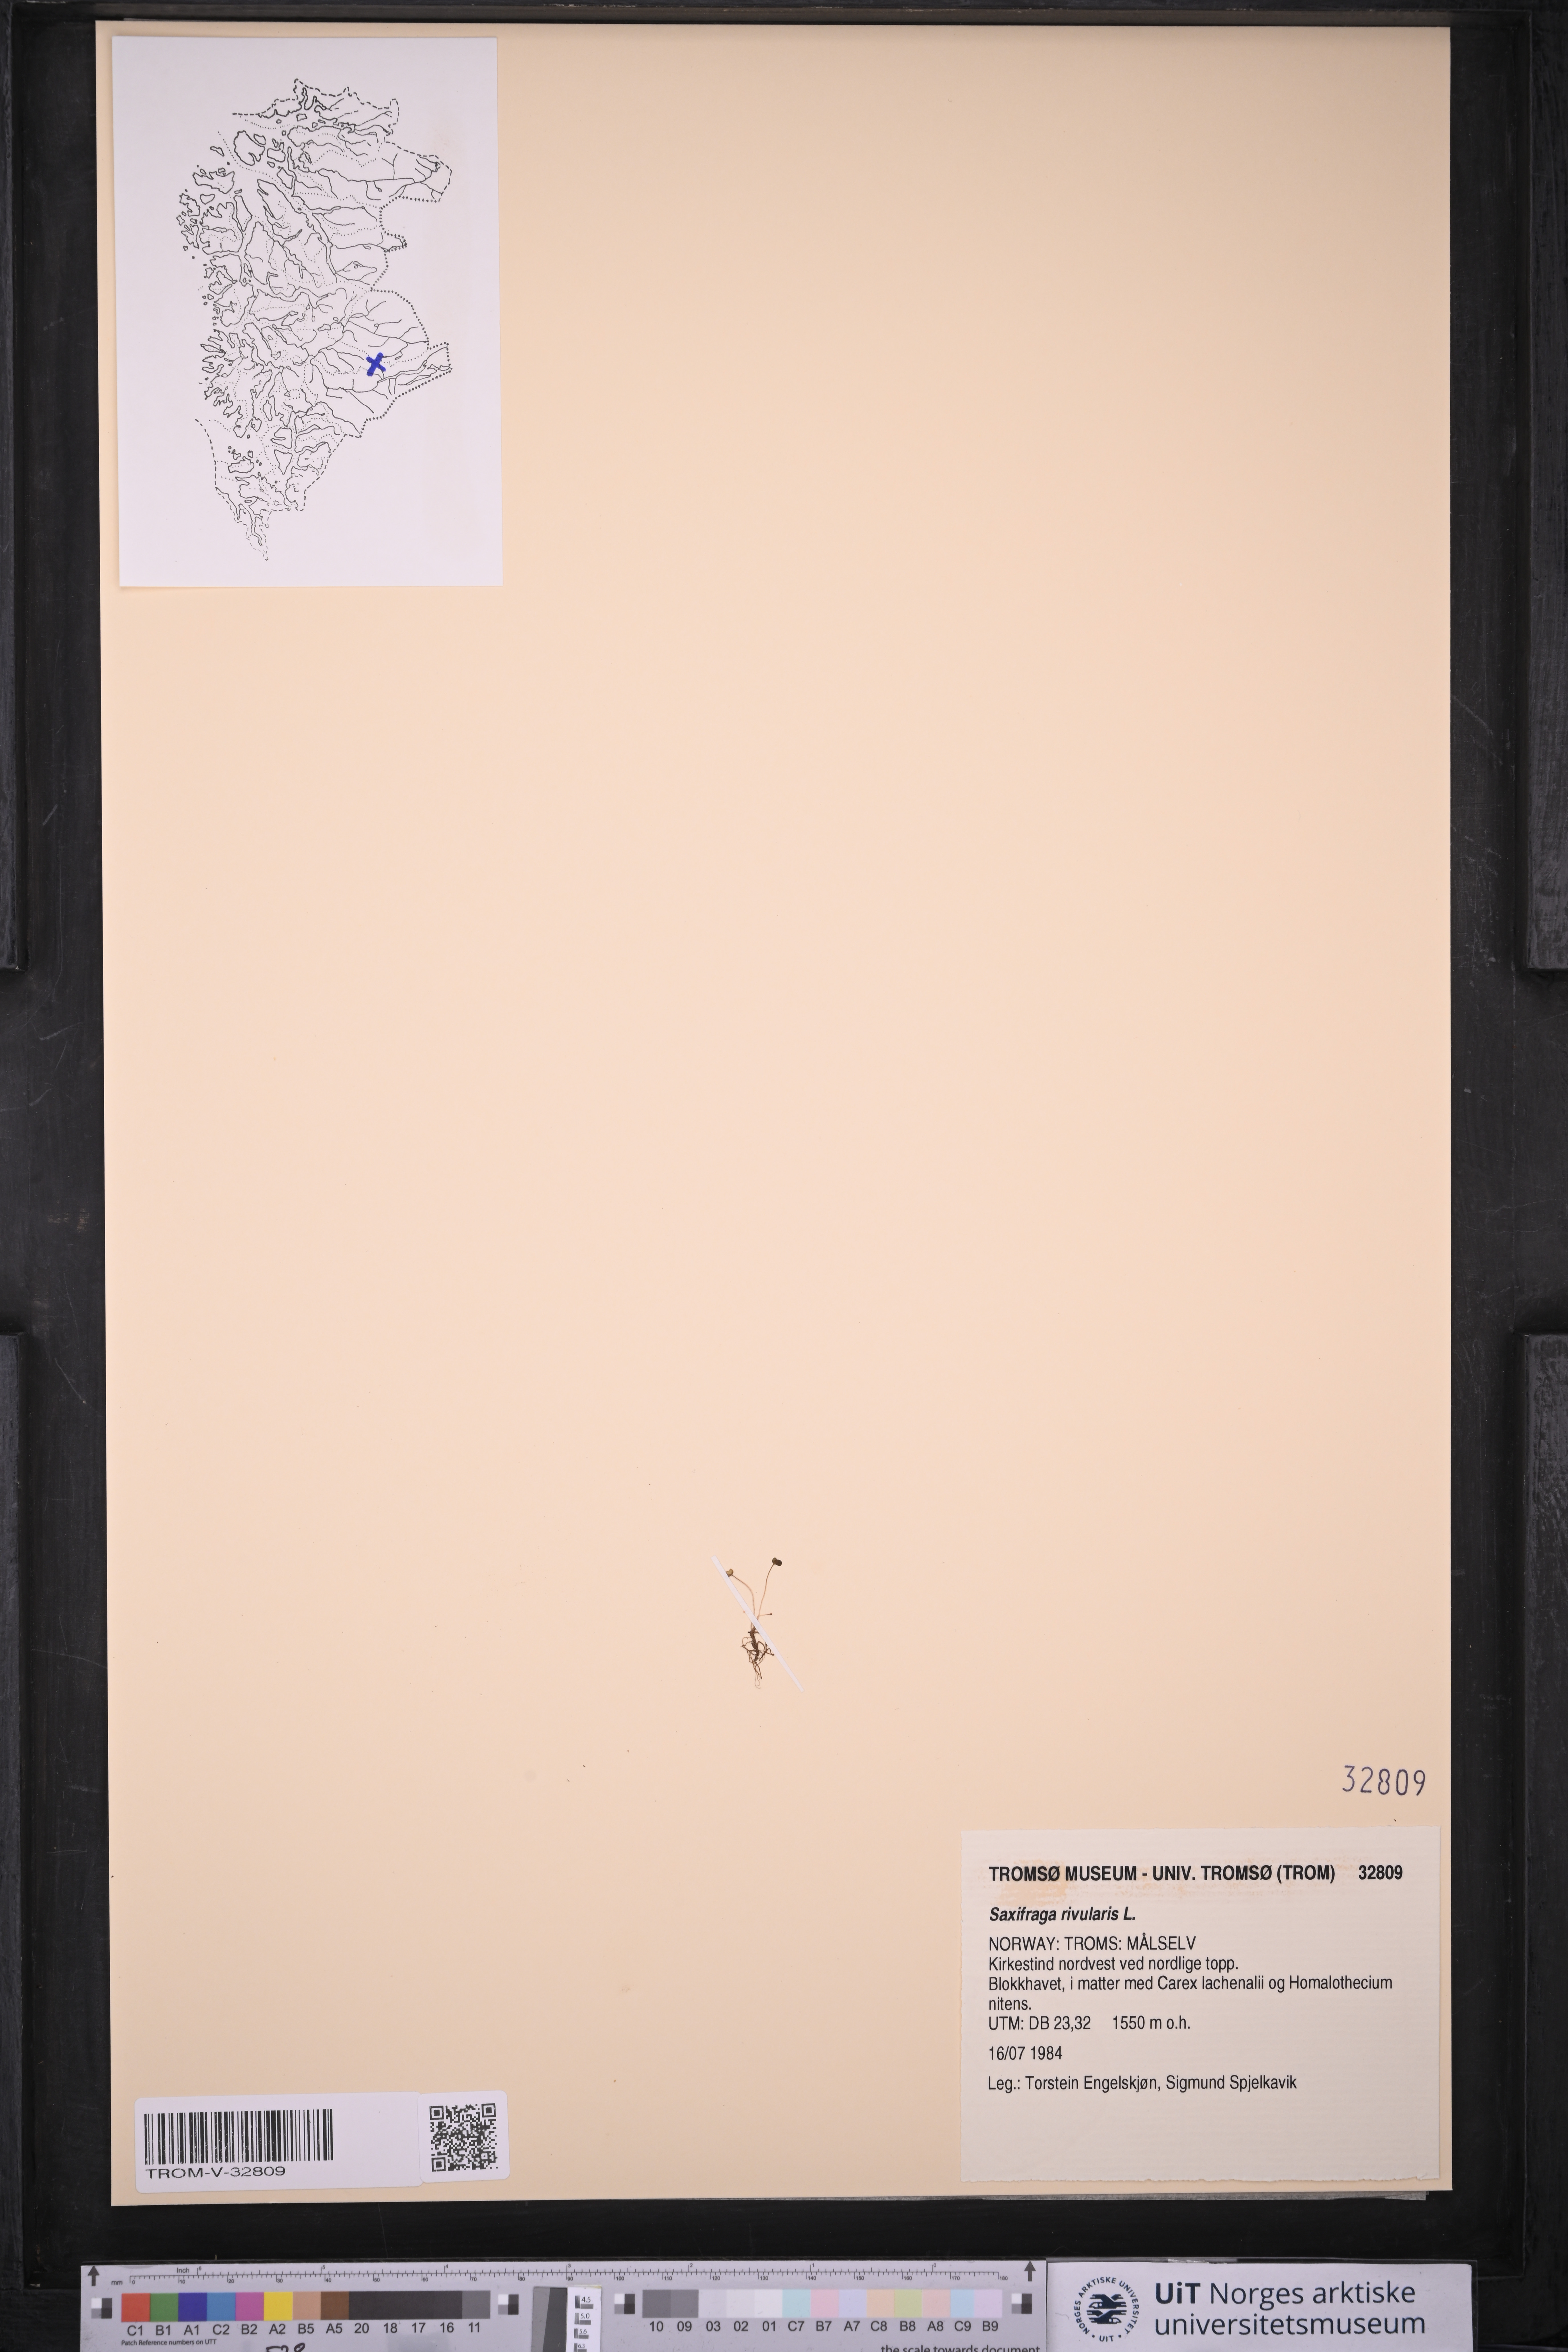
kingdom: Plantae
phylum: Tracheophyta
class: Magnoliopsida
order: Saxifragales
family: Saxifragaceae
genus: Saxifraga
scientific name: Saxifraga rivularis
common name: Highland saxifrage
